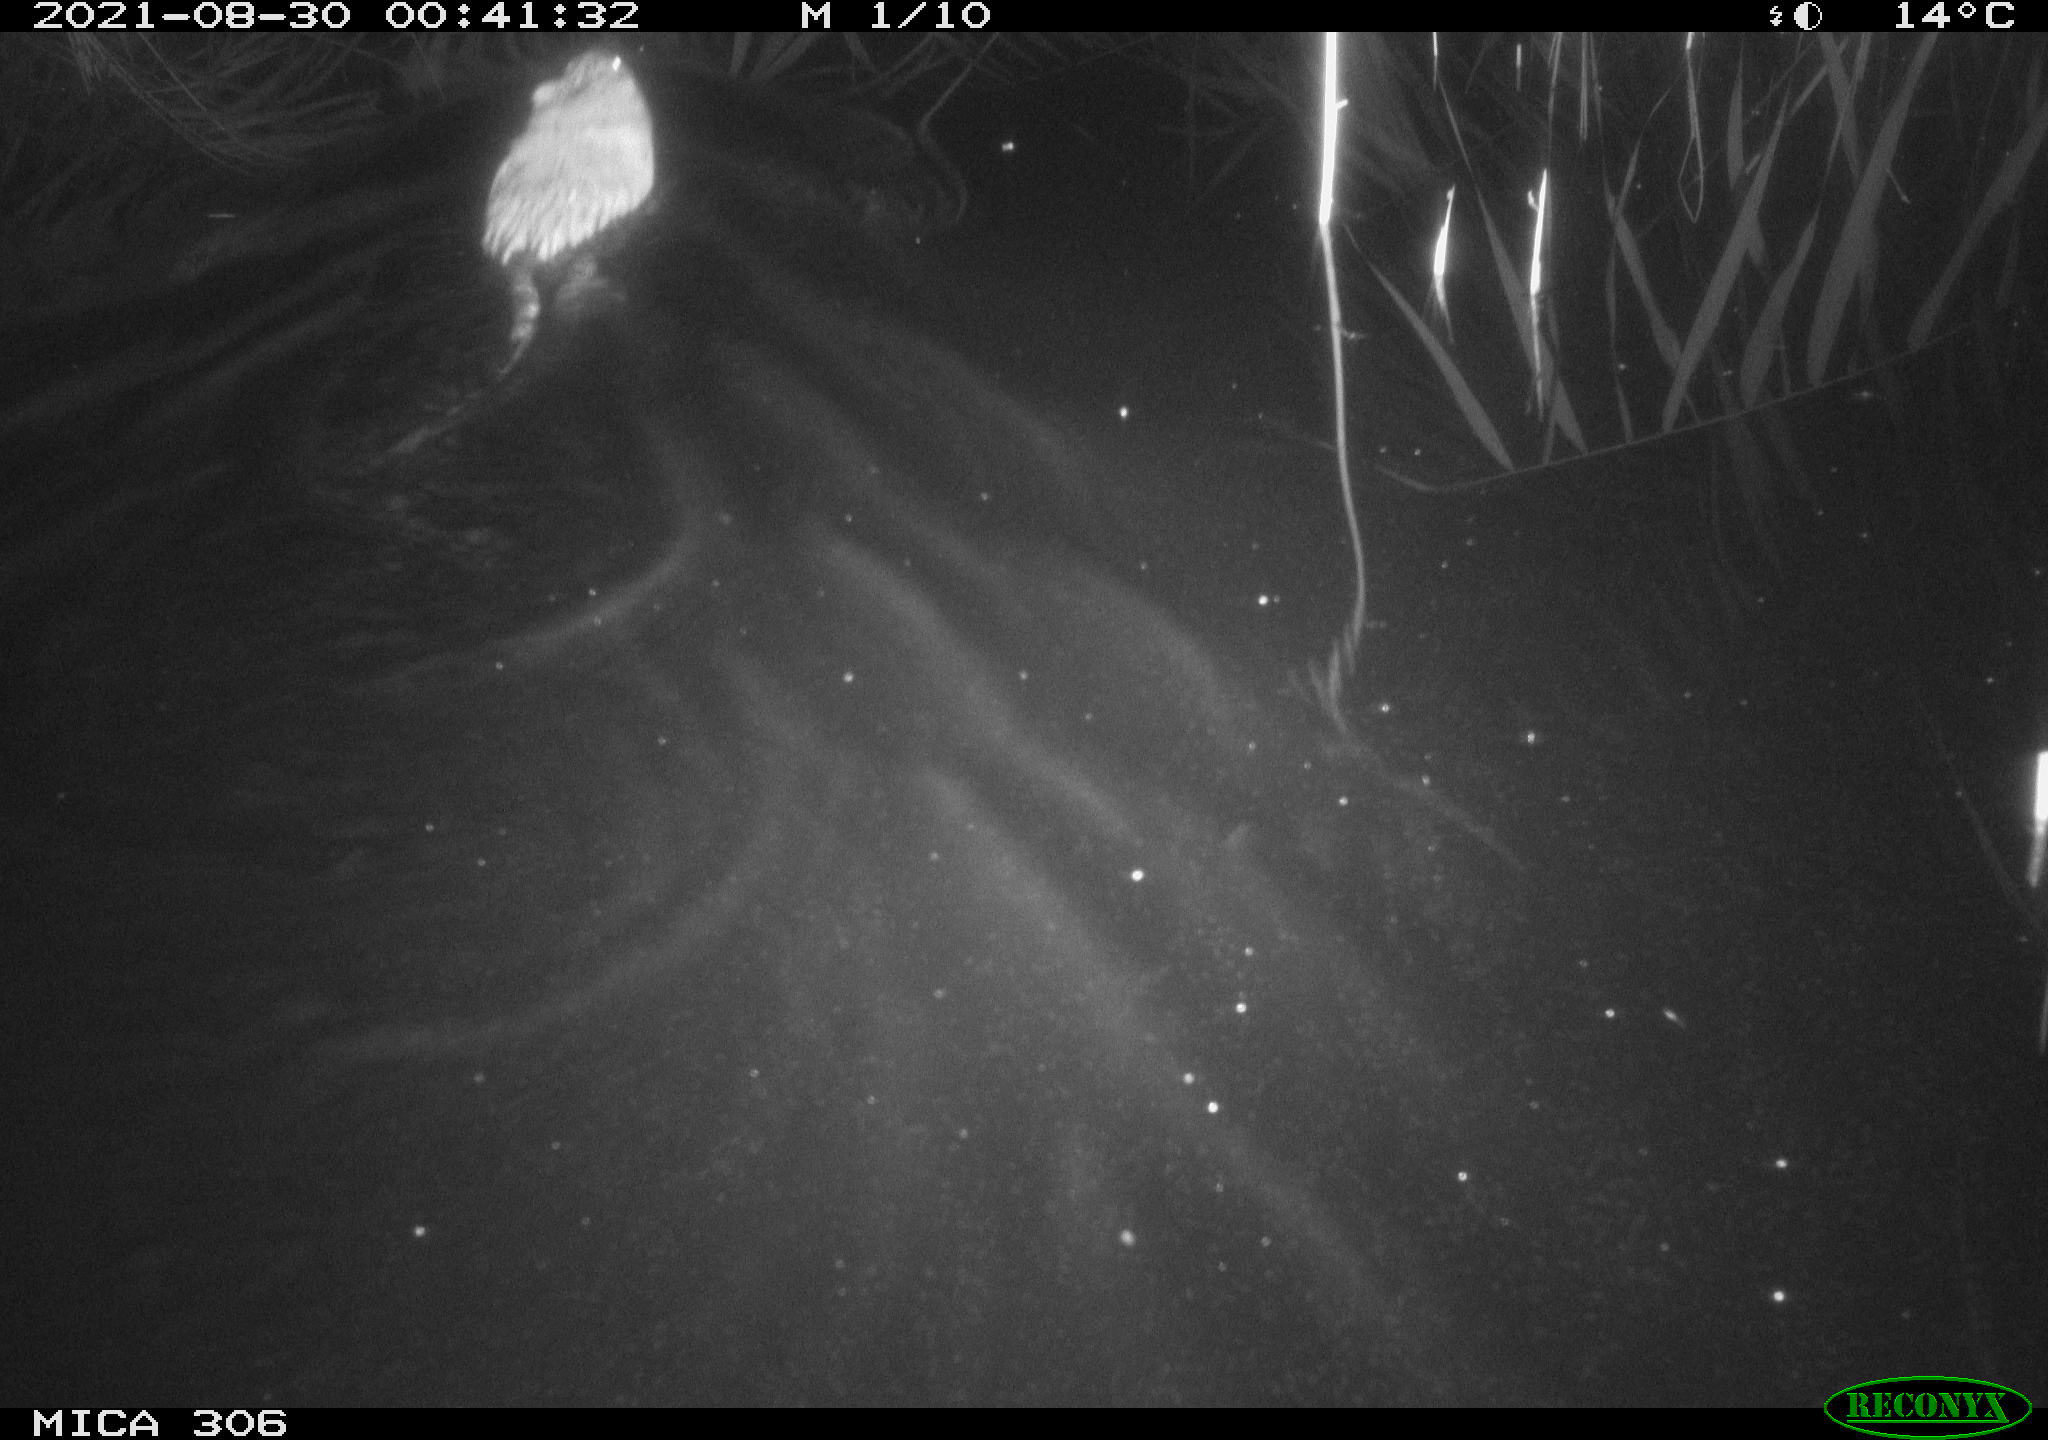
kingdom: Animalia
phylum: Chordata
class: Mammalia
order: Rodentia
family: Cricetidae
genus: Ondatra
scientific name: Ondatra zibethicus
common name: Muskrat
